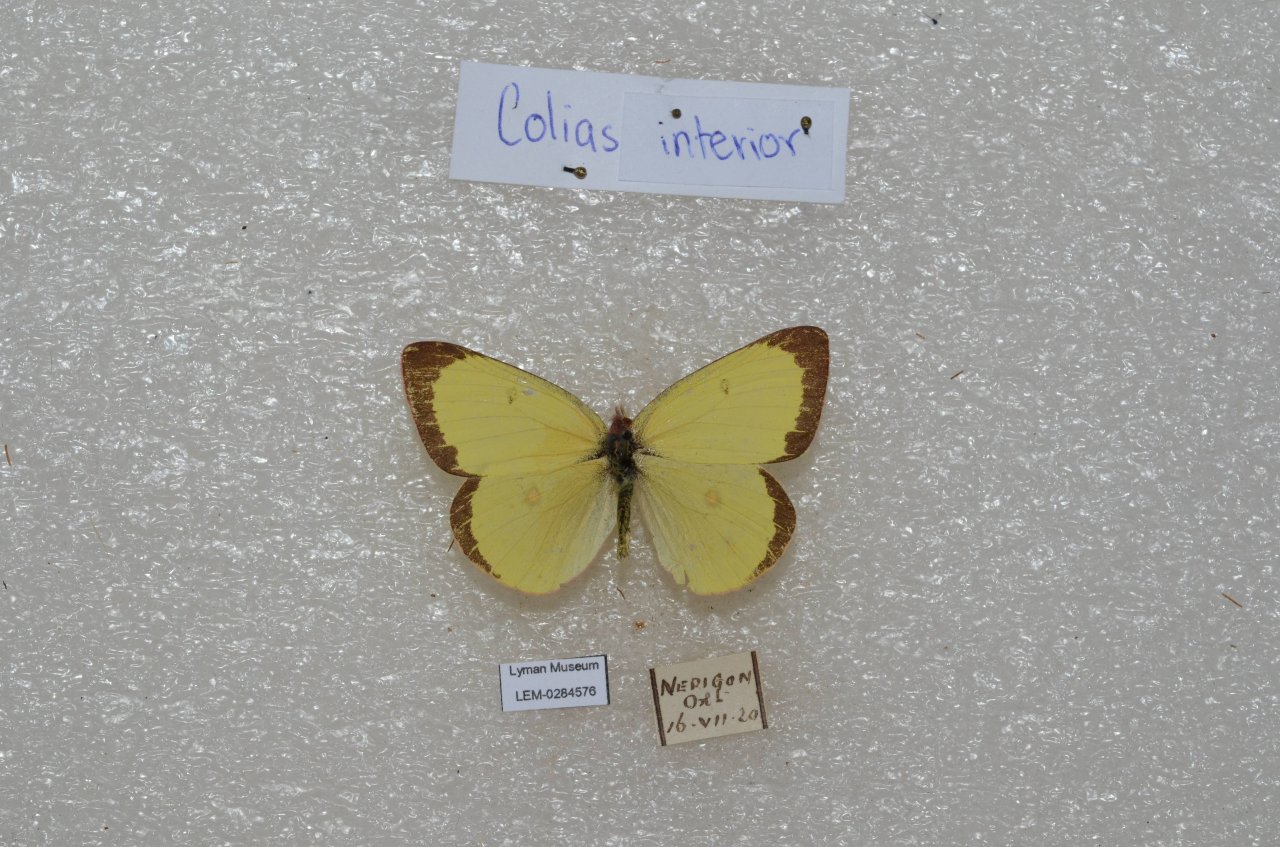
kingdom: Animalia
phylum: Arthropoda
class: Insecta
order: Lepidoptera
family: Pieridae
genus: Colias
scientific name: Colias interior
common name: Pink-edged Sulphur
